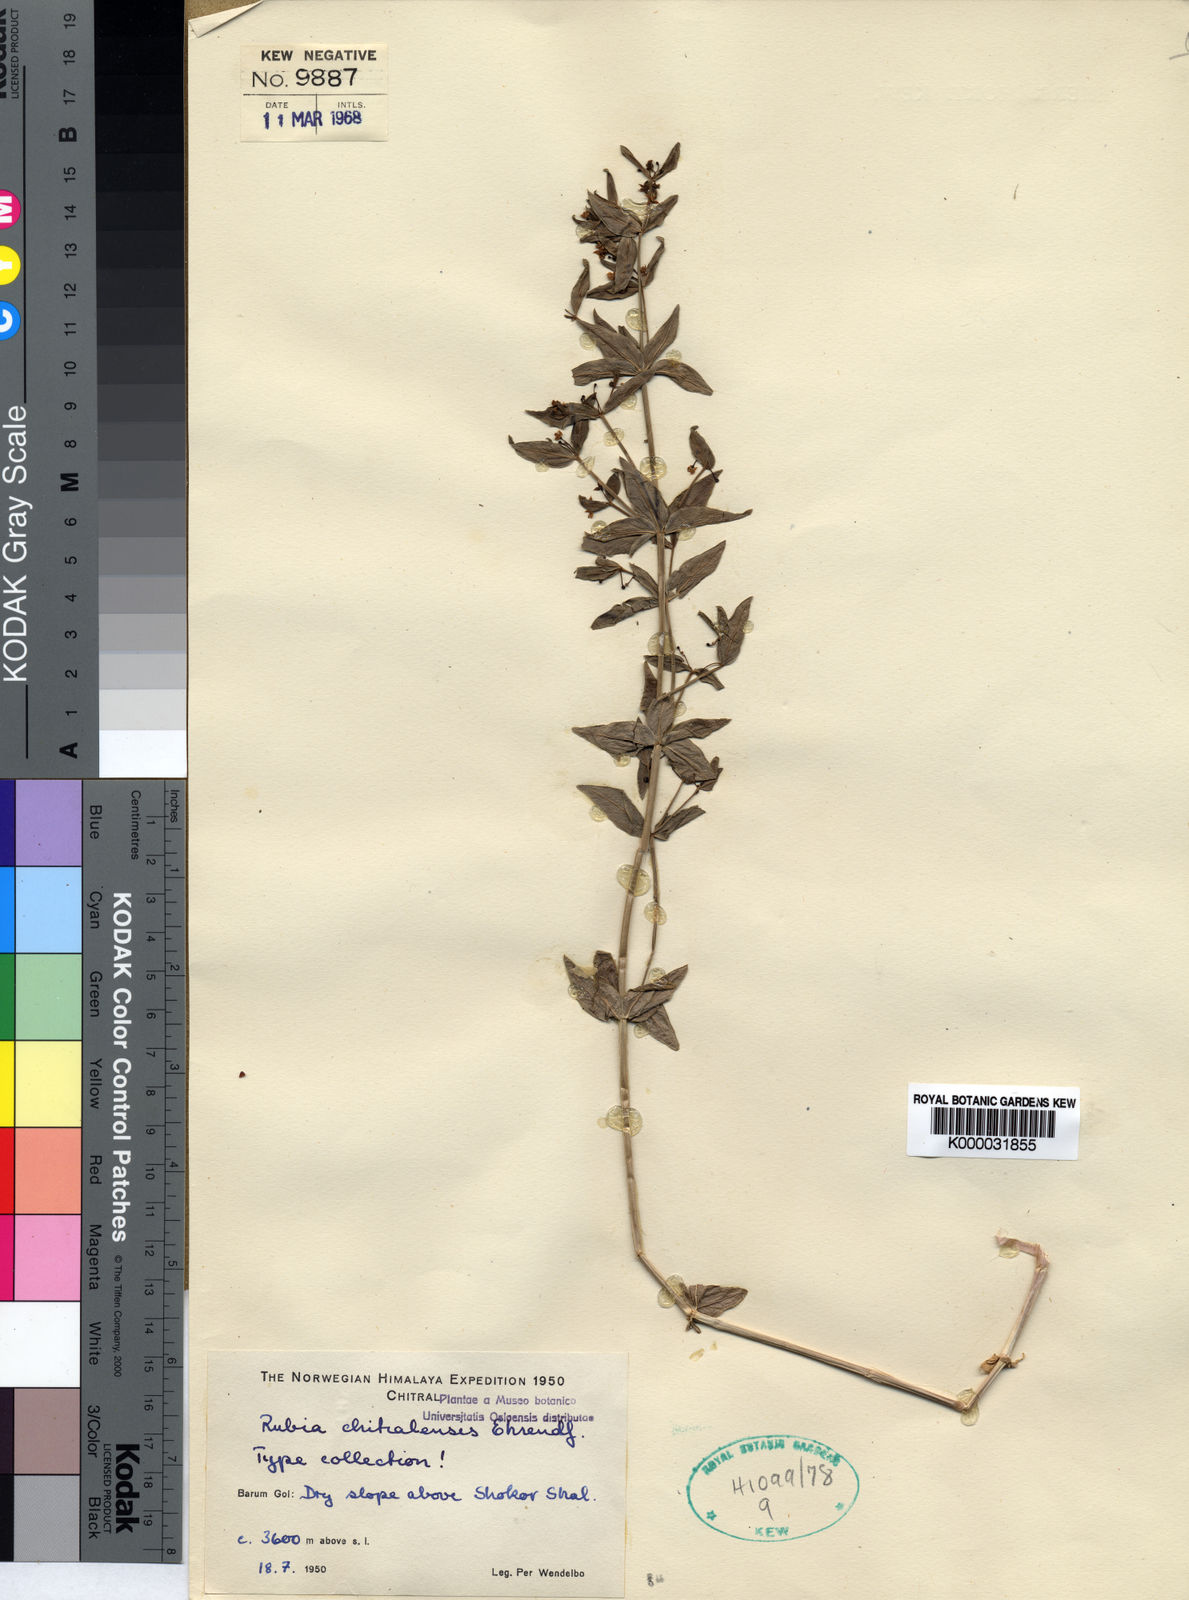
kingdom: Plantae
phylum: Tracheophyta
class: Magnoliopsida
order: Gentianales
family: Rubiaceae
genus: Rubia
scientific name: Rubia chitralensis
